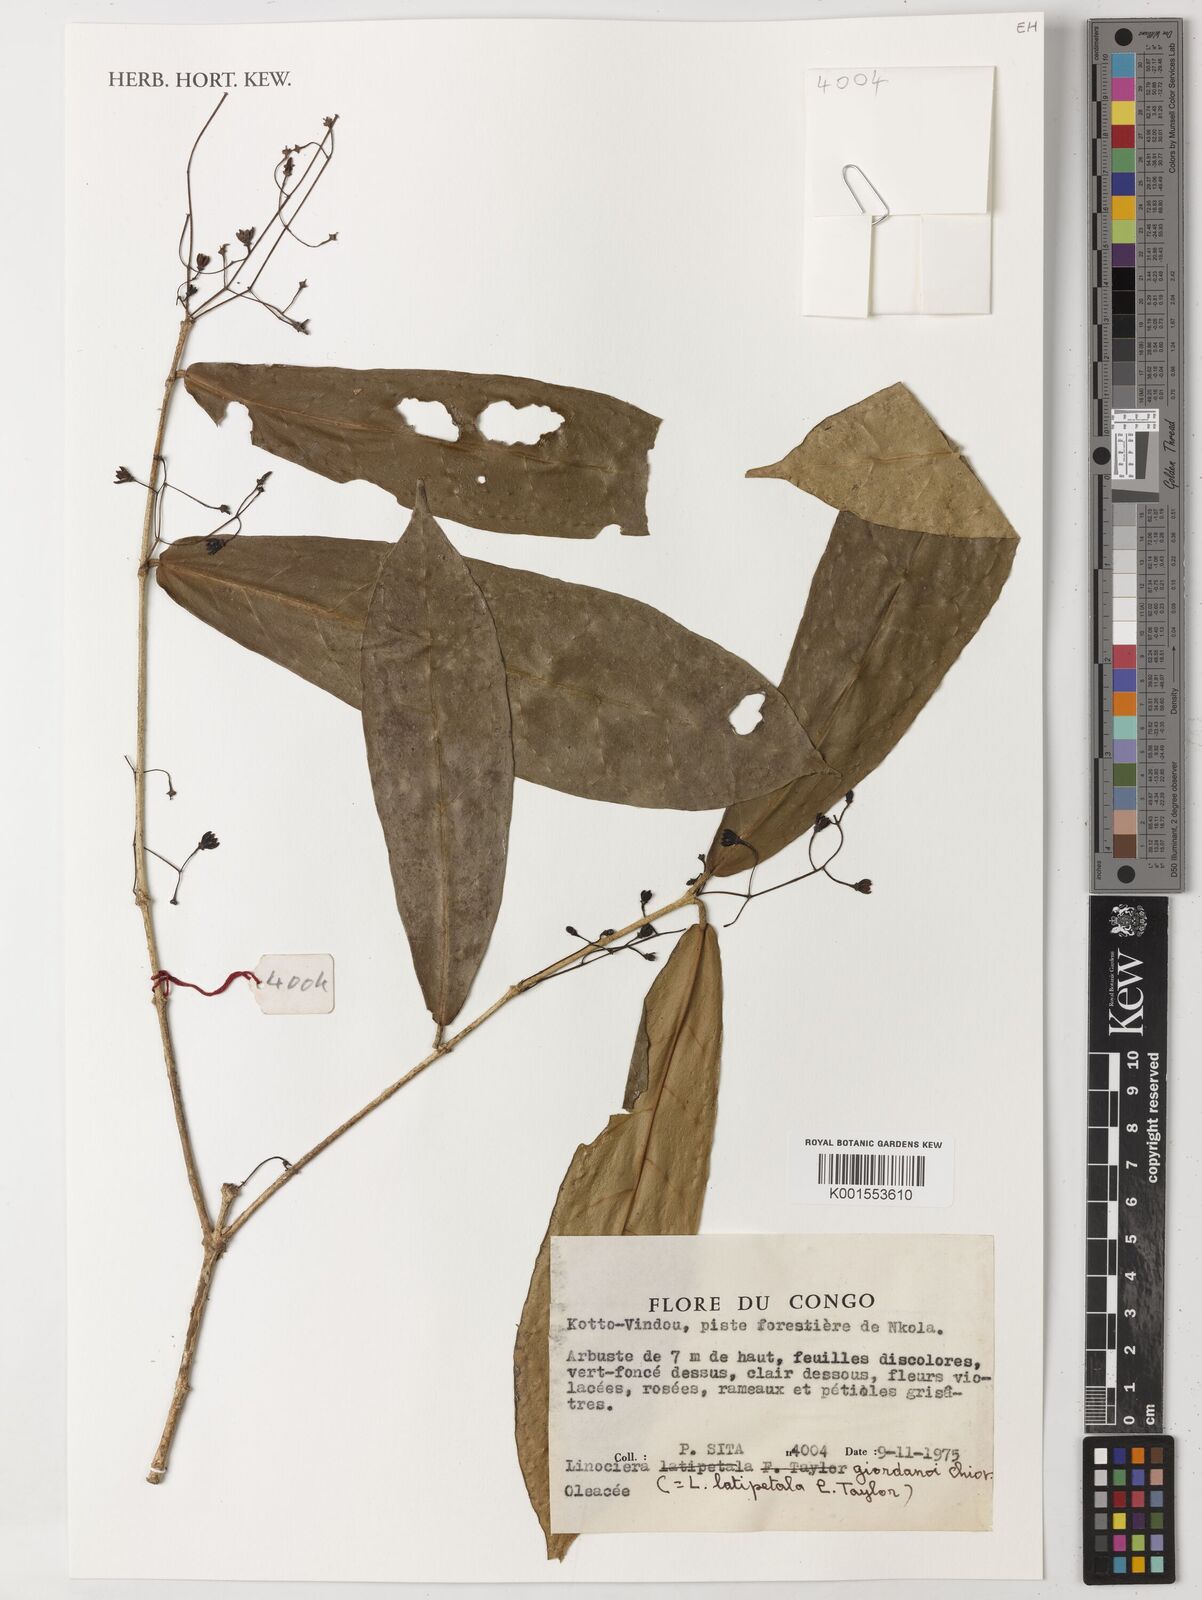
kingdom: Plantae
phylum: Tracheophyta
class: Magnoliopsida
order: Lamiales
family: Oleaceae
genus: Noronhia
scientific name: Noronhia africana
